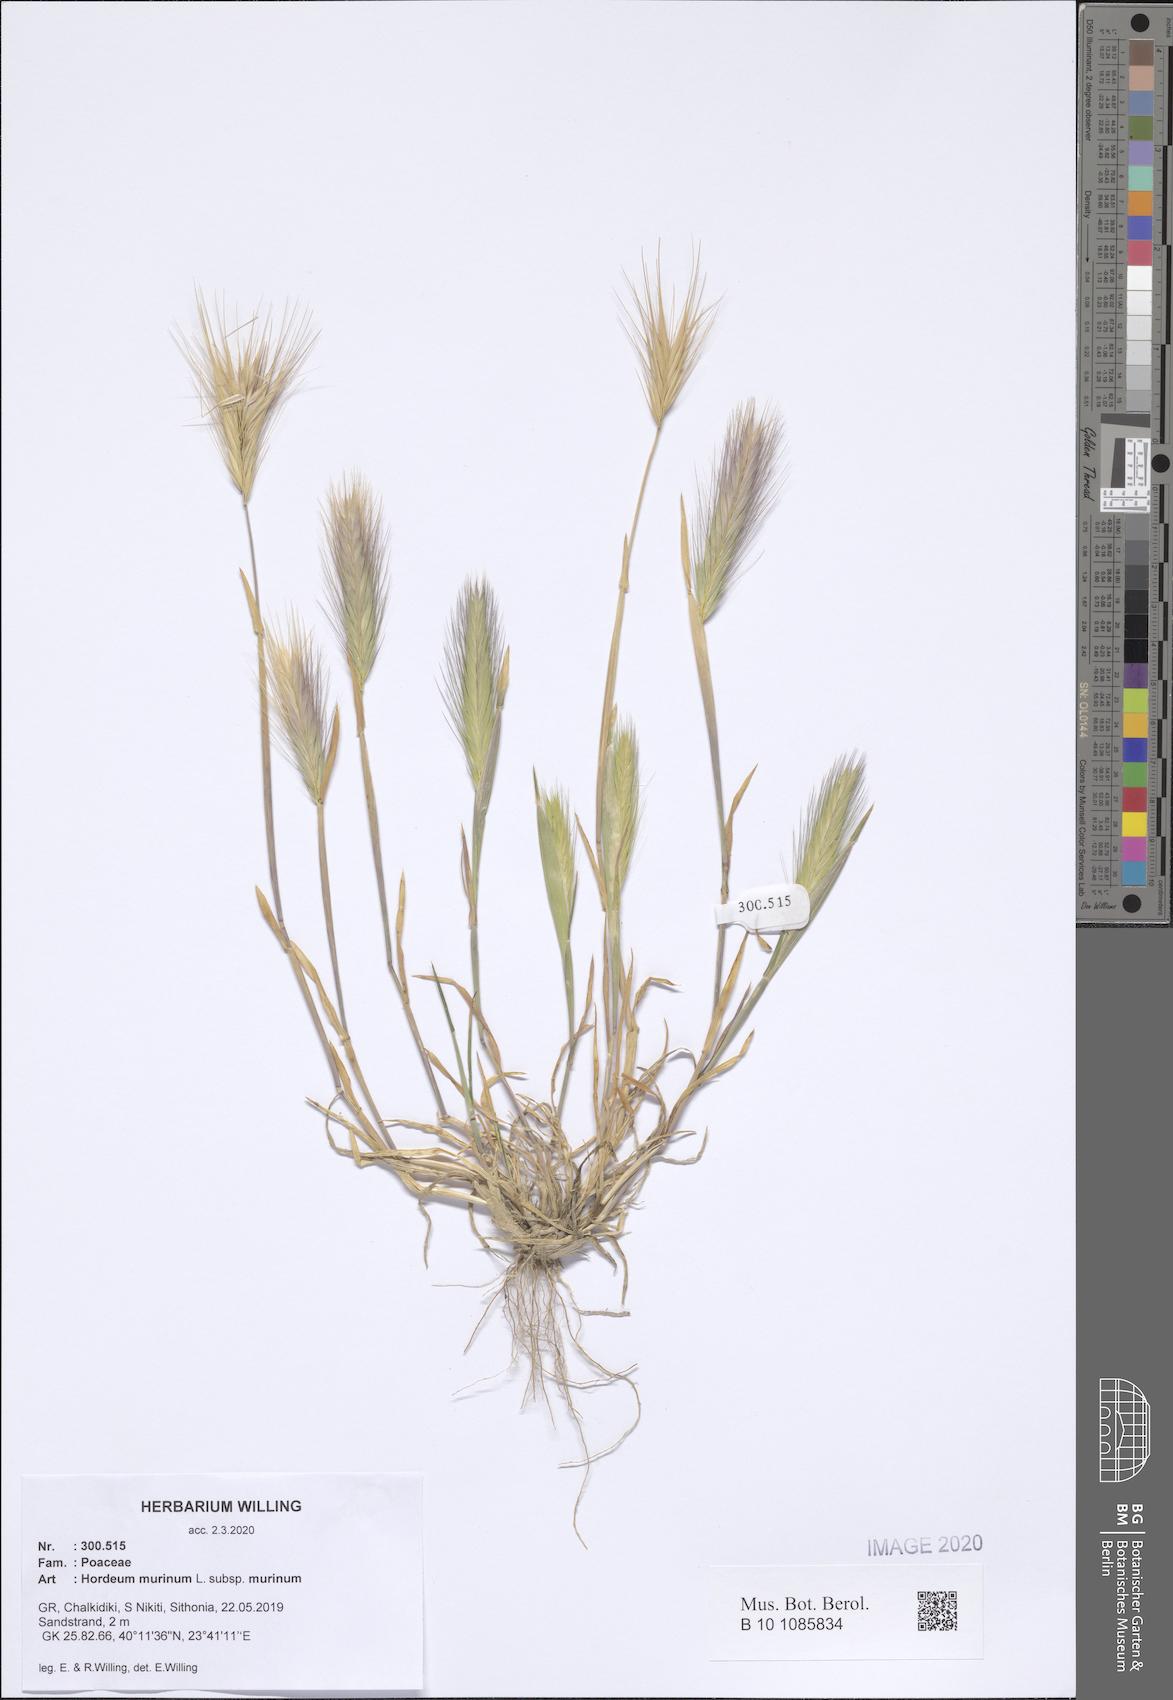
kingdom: Plantae
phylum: Tracheophyta
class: Liliopsida
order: Poales
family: Poaceae
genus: Hordeum
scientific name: Hordeum murinum
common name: Wall barley
